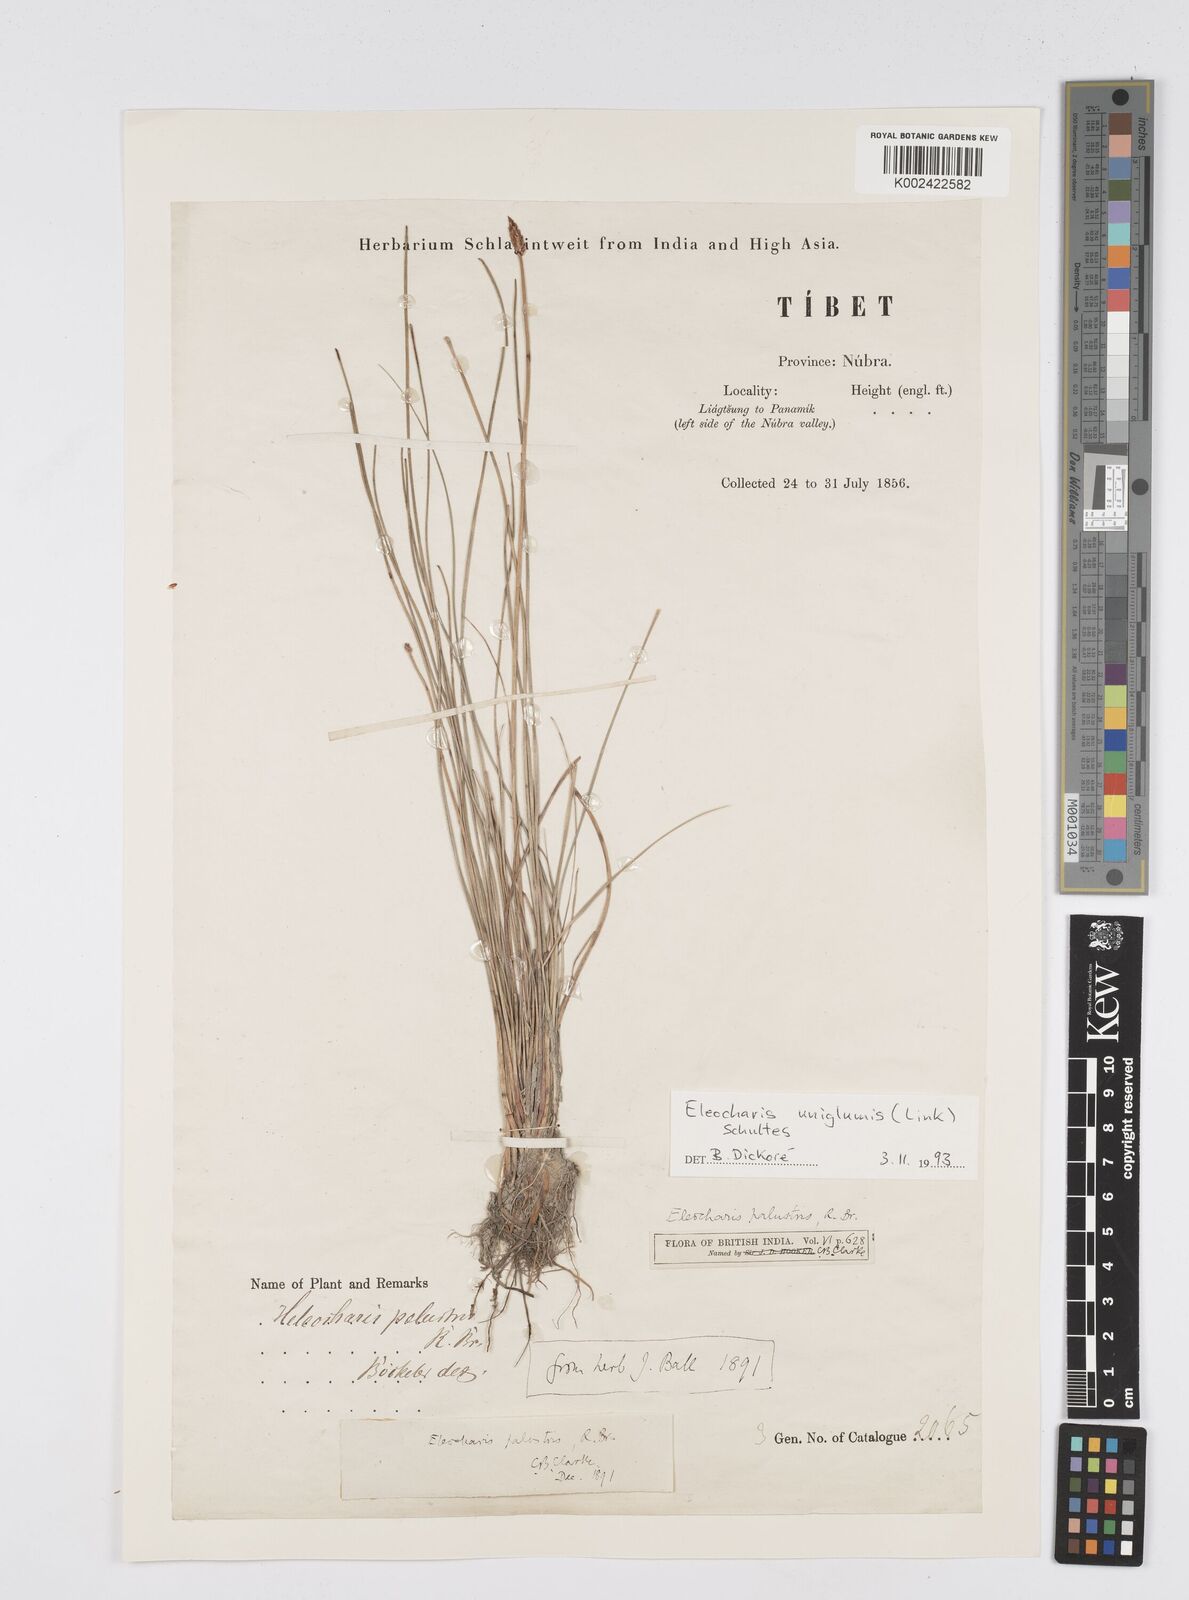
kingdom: Plantae
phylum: Tracheophyta
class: Liliopsida
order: Poales
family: Cyperaceae
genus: Eleocharis
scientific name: Eleocharis uniglumis
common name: Slender spike-rush
